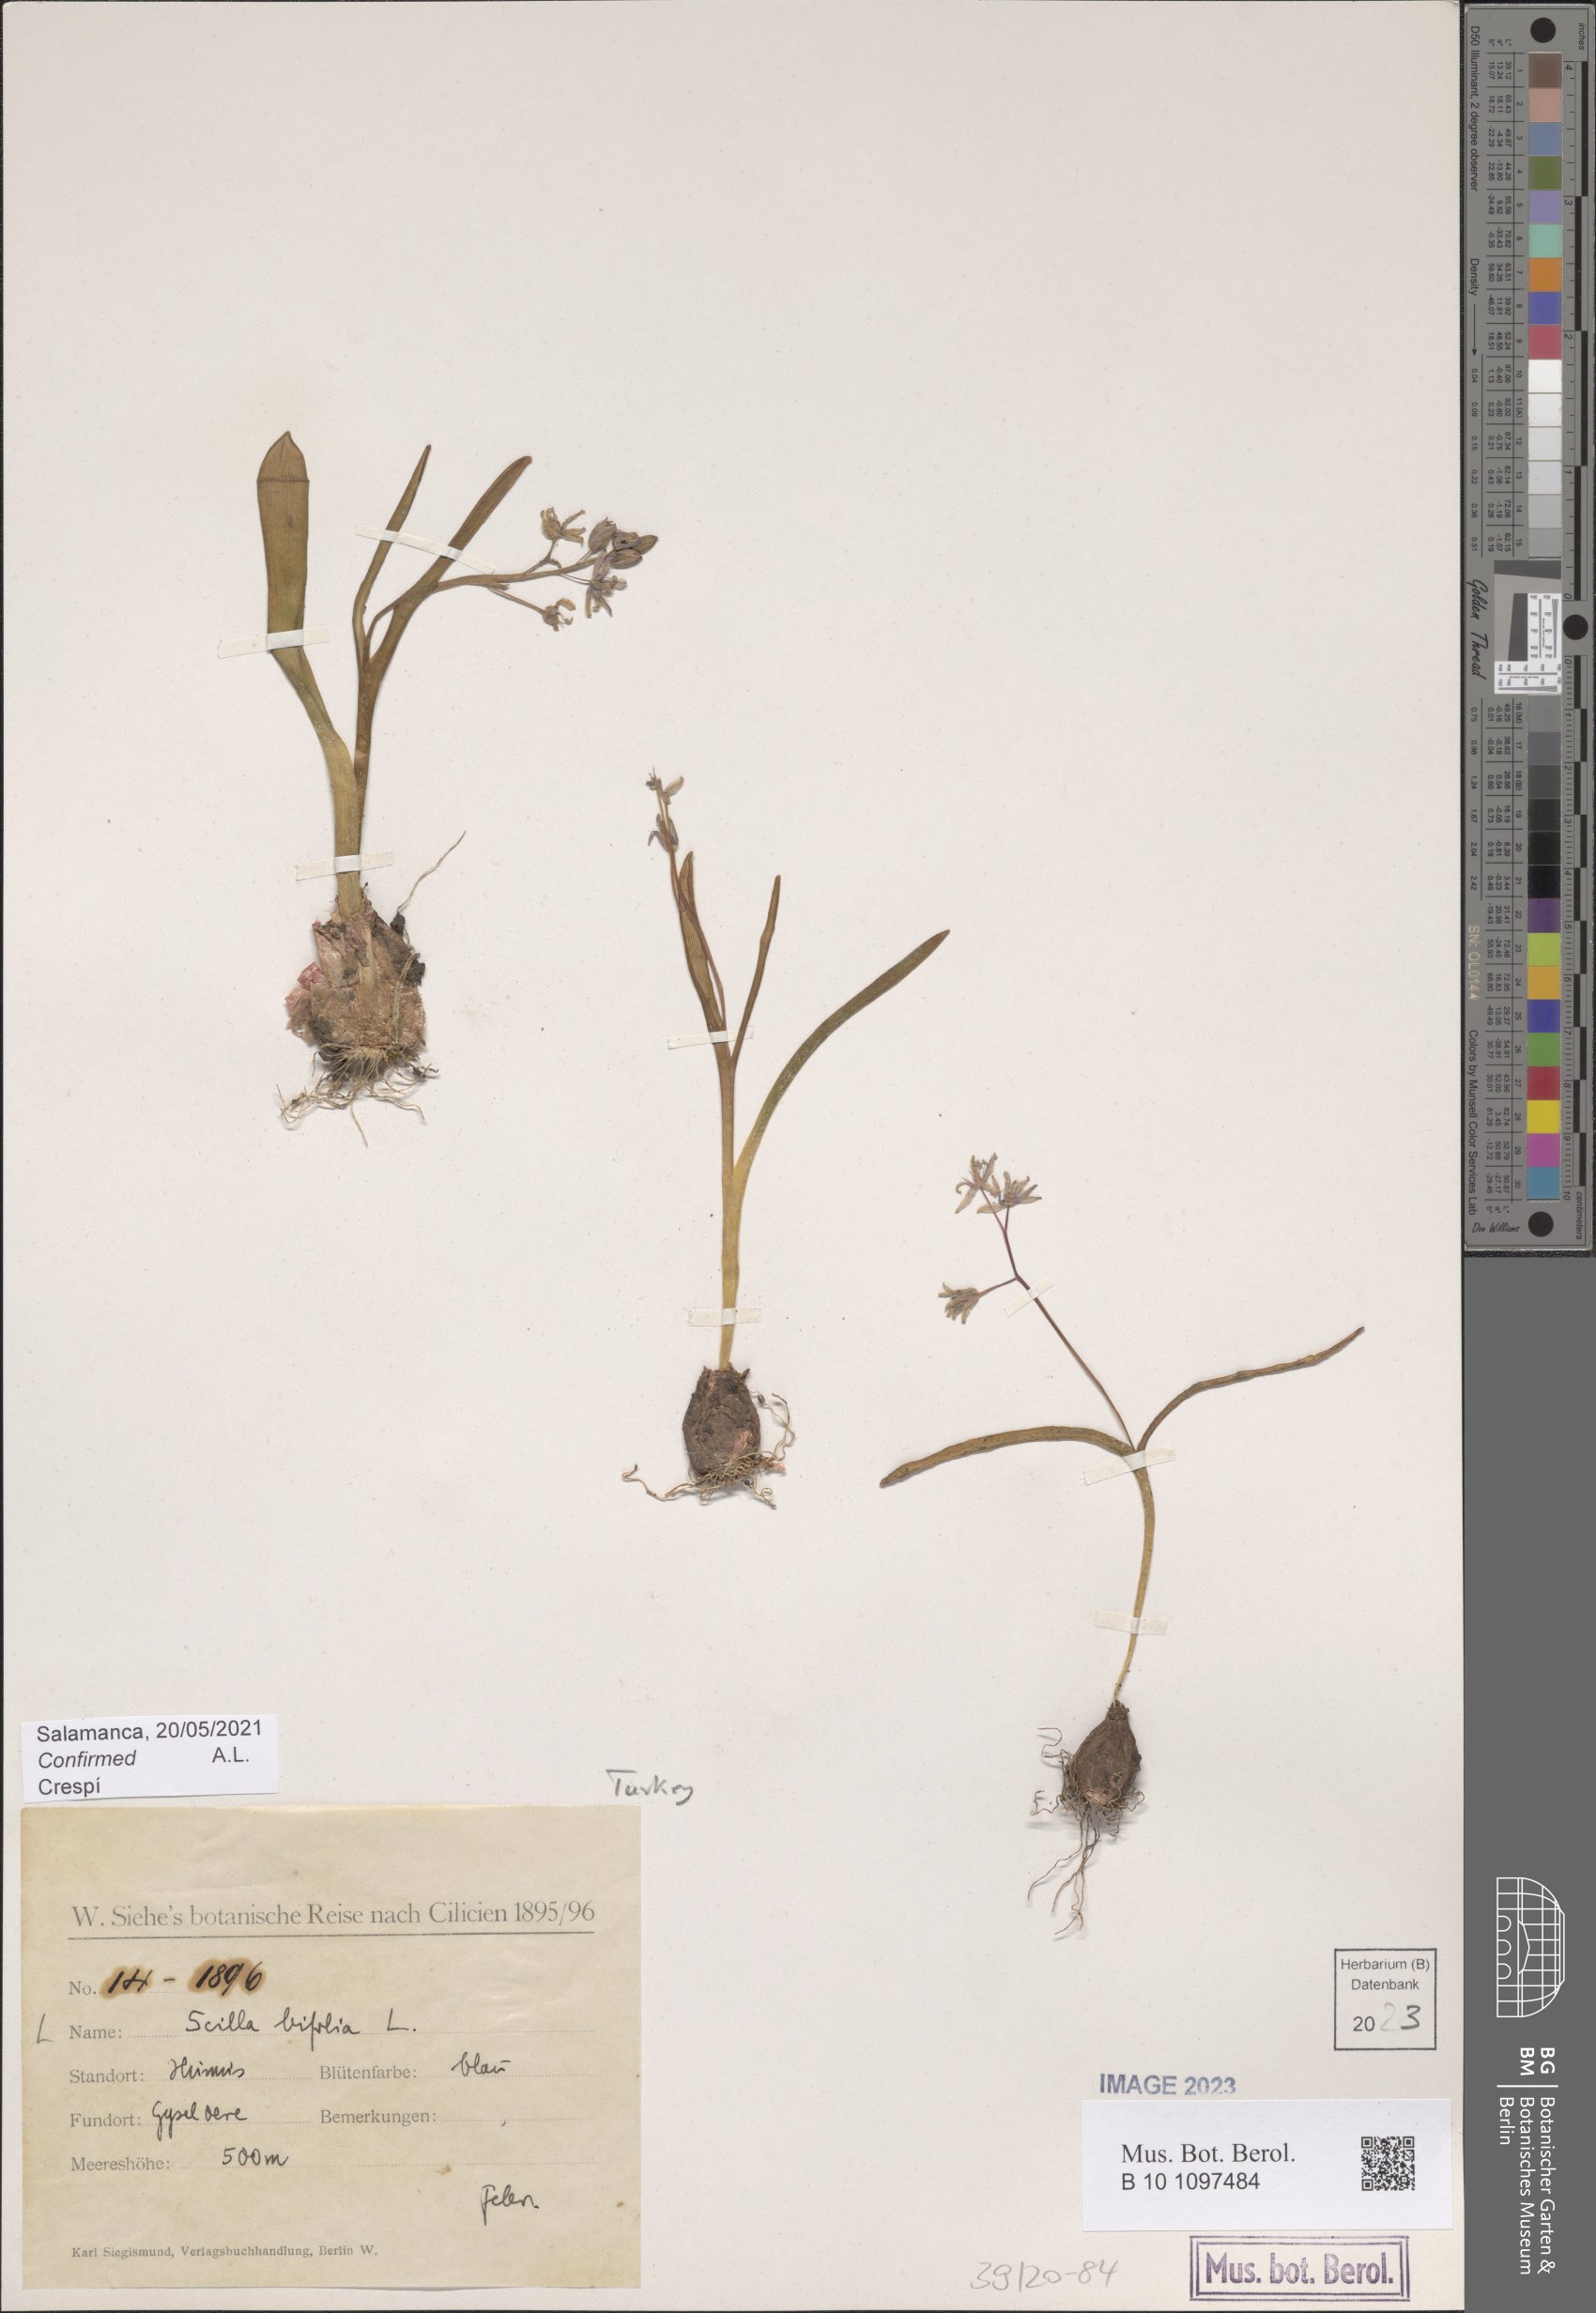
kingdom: Plantae
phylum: Tracheophyta
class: Liliopsida
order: Asparagales
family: Asparagaceae
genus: Scilla
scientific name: Scilla bifolia
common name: Alpine squill
